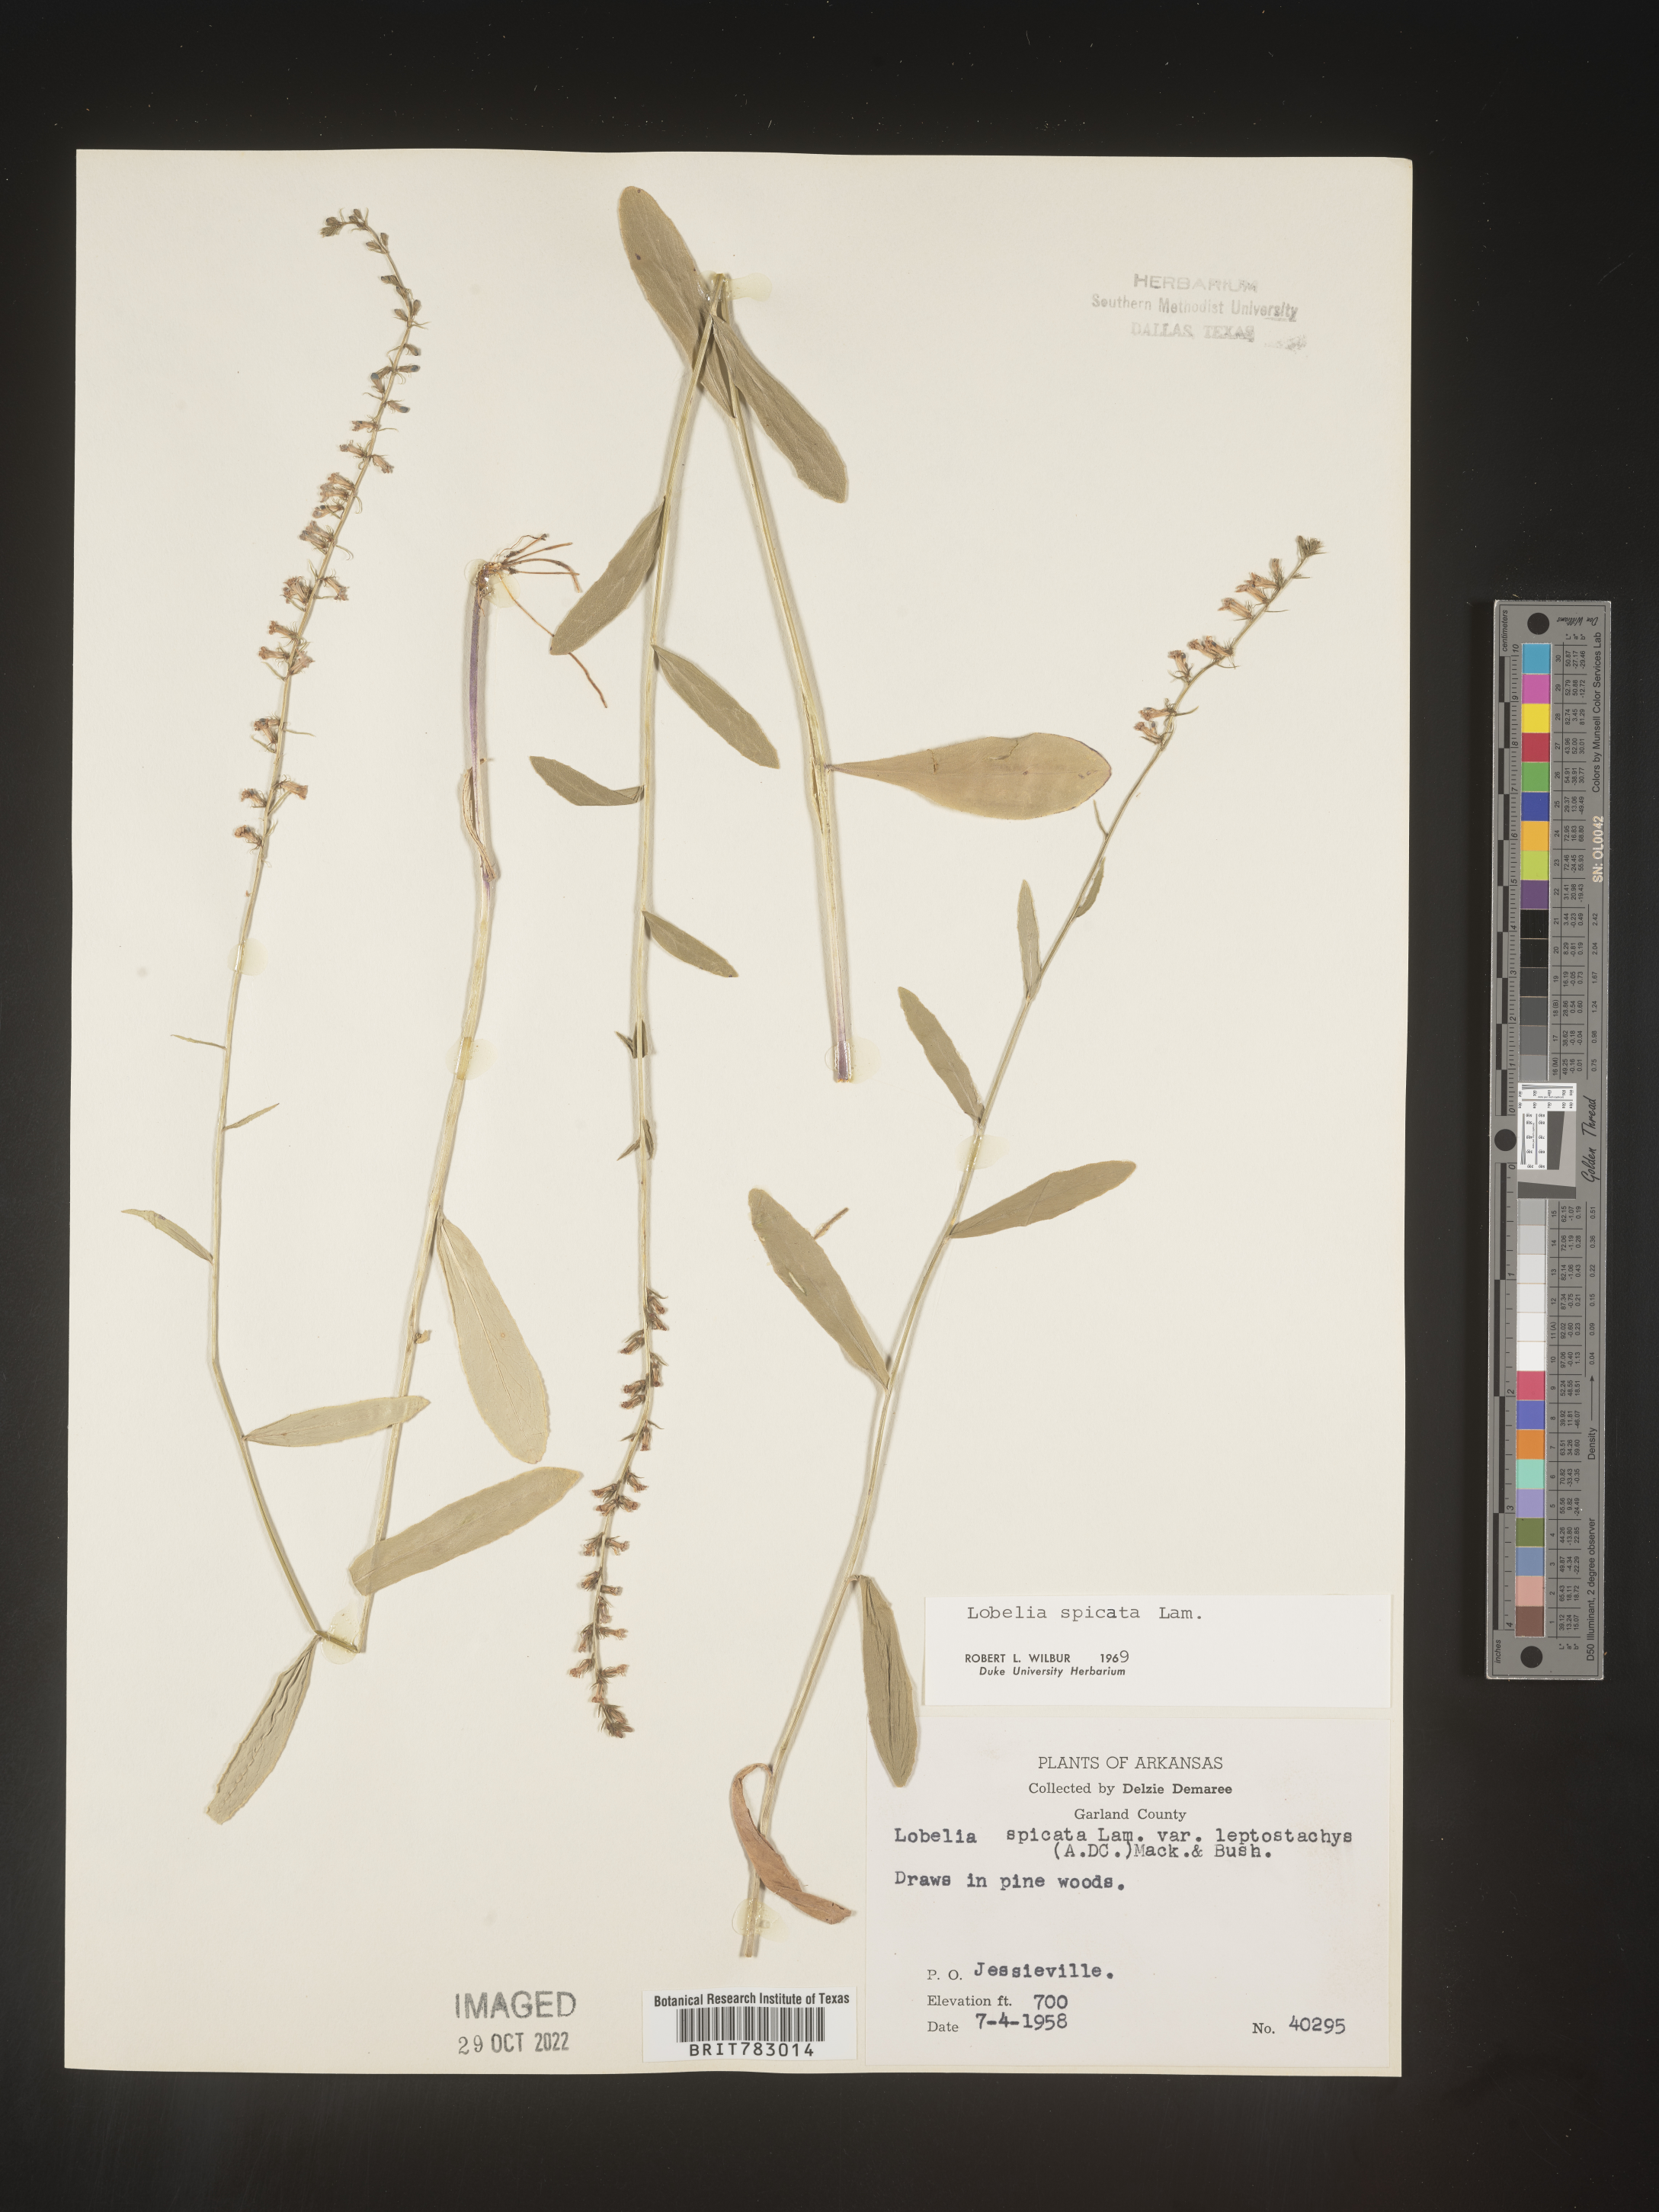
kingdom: Plantae
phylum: Tracheophyta
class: Magnoliopsida
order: Asterales
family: Campanulaceae
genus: Lobelia
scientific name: Lobelia spicata
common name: Pale-spike lobelia
